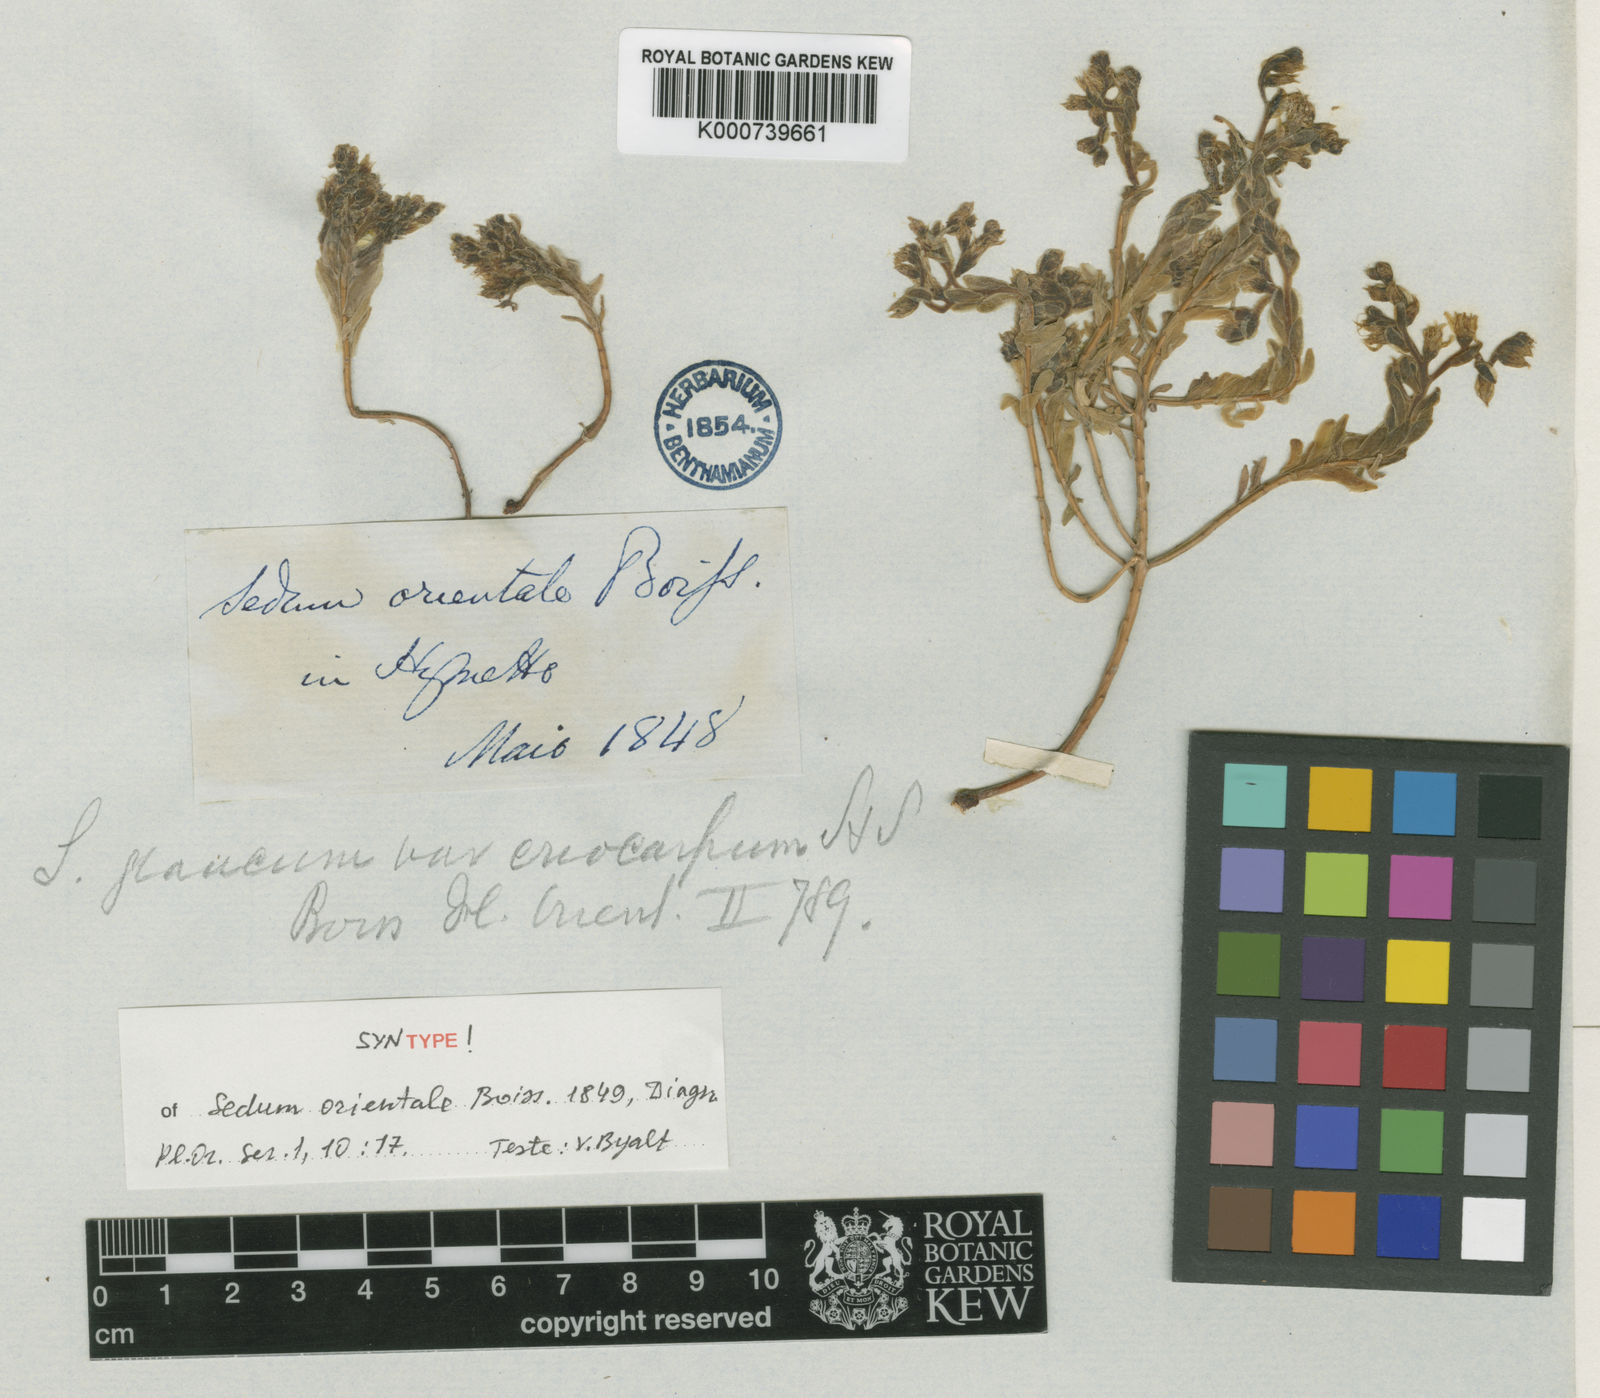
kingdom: Plantae
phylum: Tracheophyta
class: Magnoliopsida
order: Saxifragales
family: Crassulaceae
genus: Sedum
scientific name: Sedum hispanicum
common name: Spanish stonecrop
